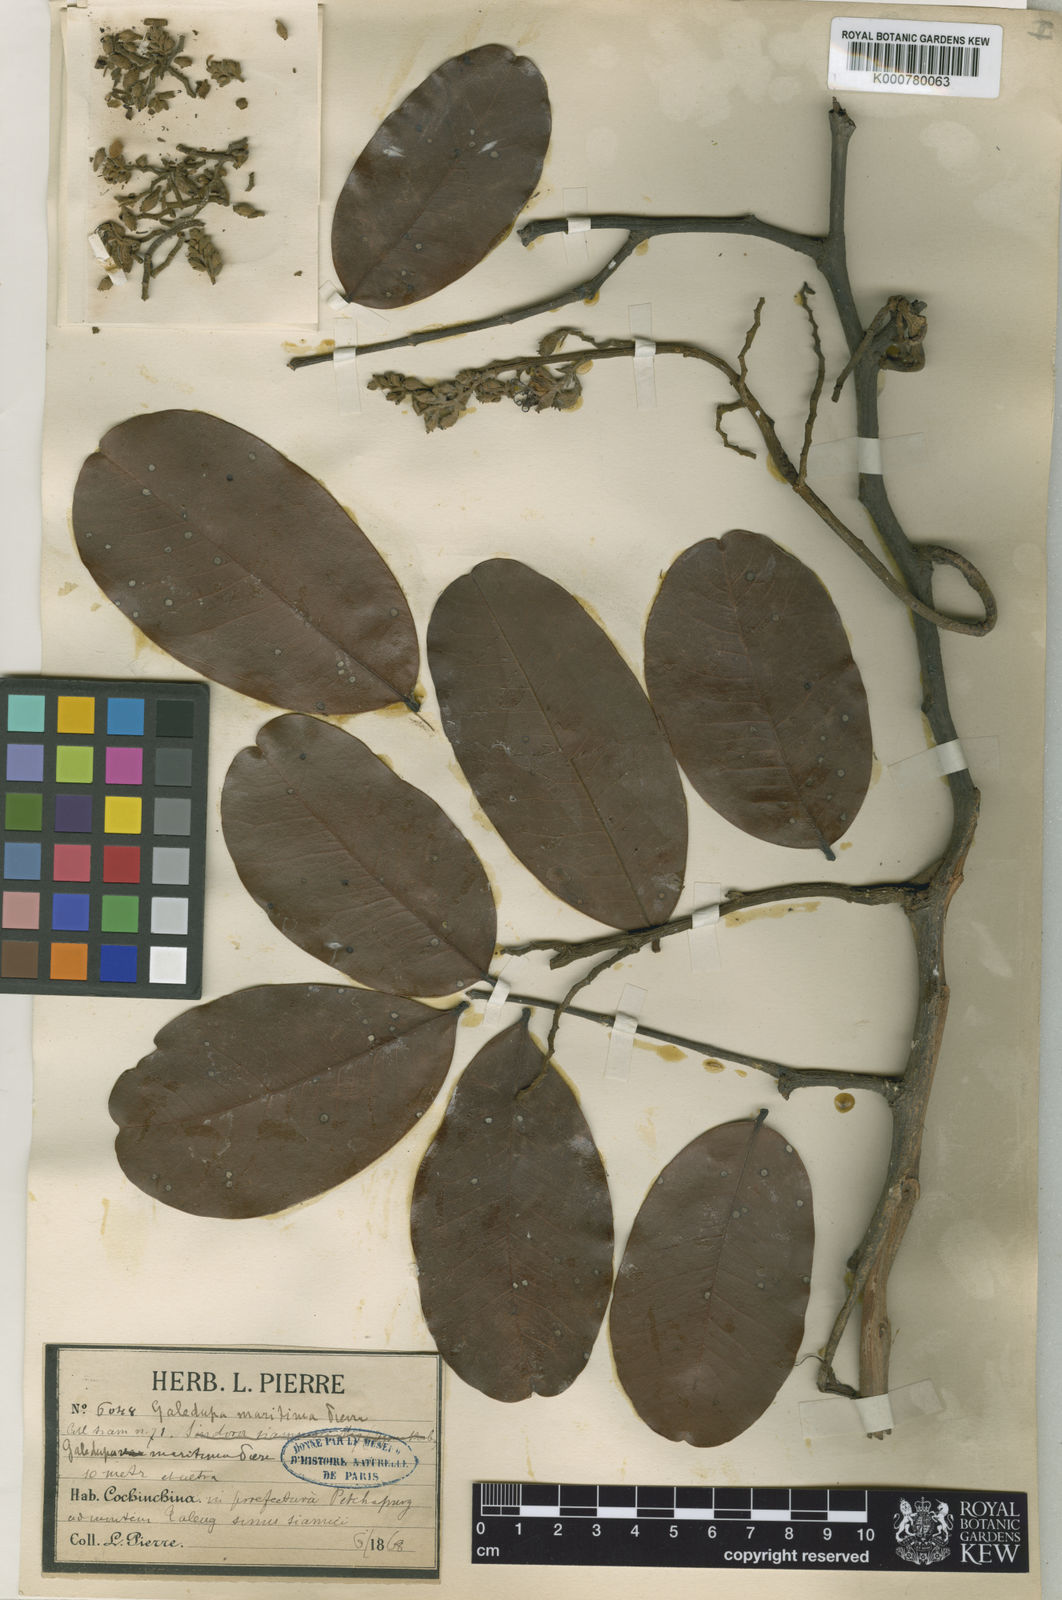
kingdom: Plantae
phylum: Tracheophyta
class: Magnoliopsida
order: Fabales
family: Fabaceae
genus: Sindora
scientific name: Sindora siamensis
